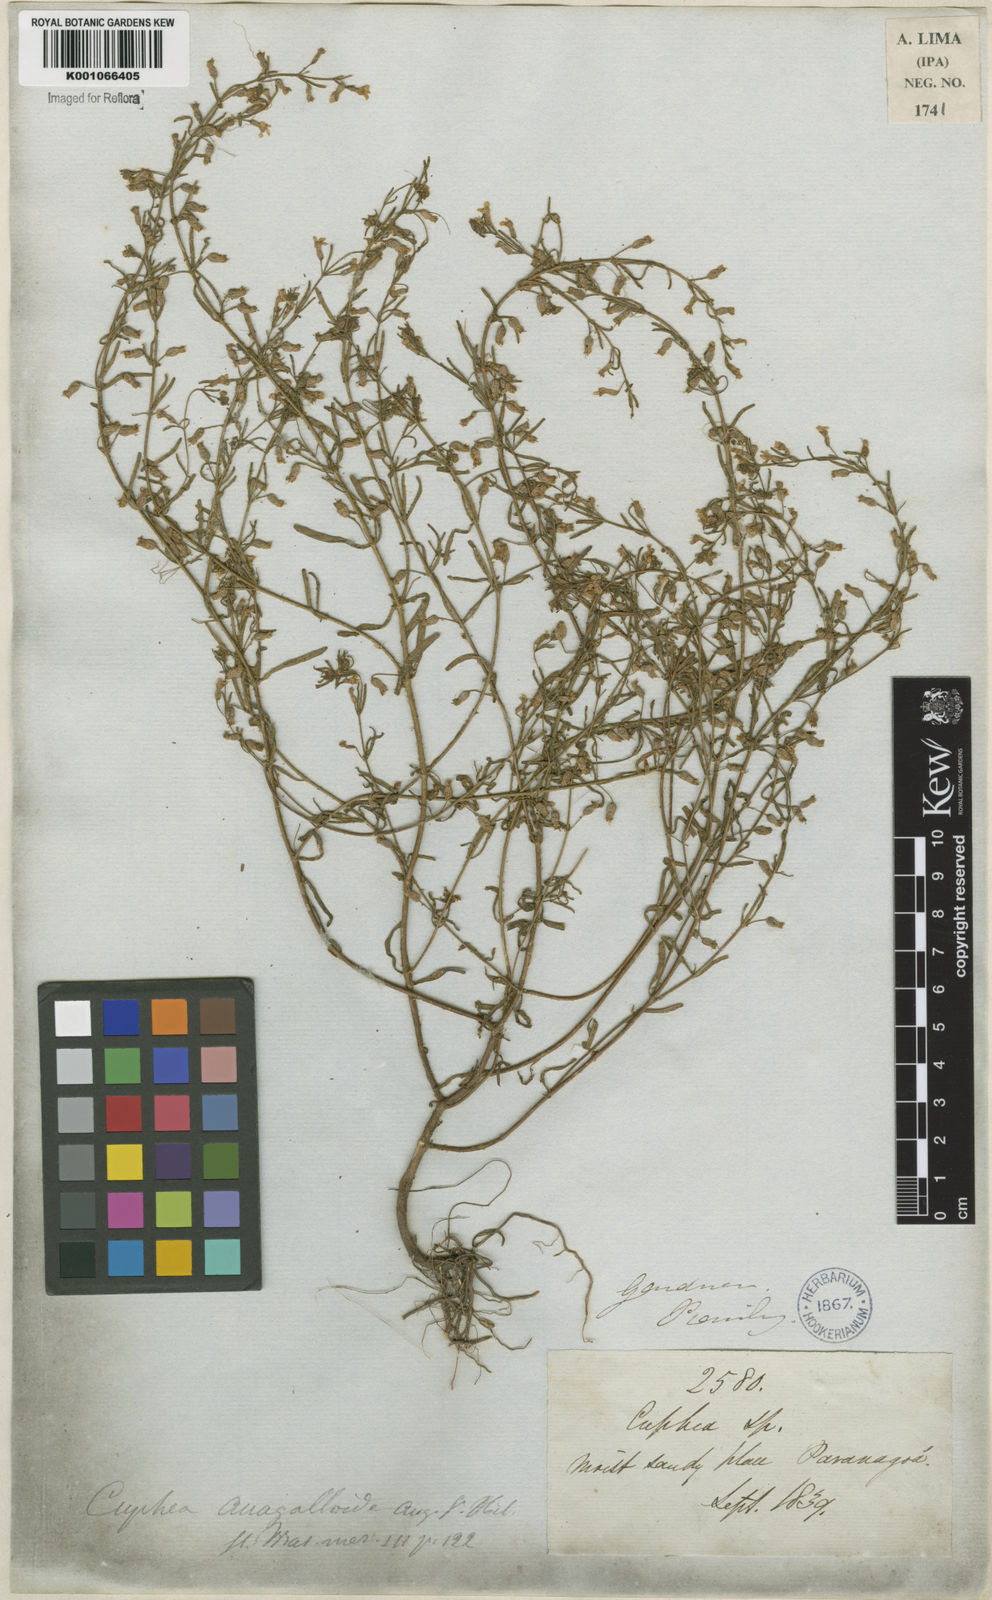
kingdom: Plantae
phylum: Tracheophyta
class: Magnoliopsida
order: Myrtales
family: Lythraceae
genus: Cuphea
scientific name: Cuphea anagalloidea
